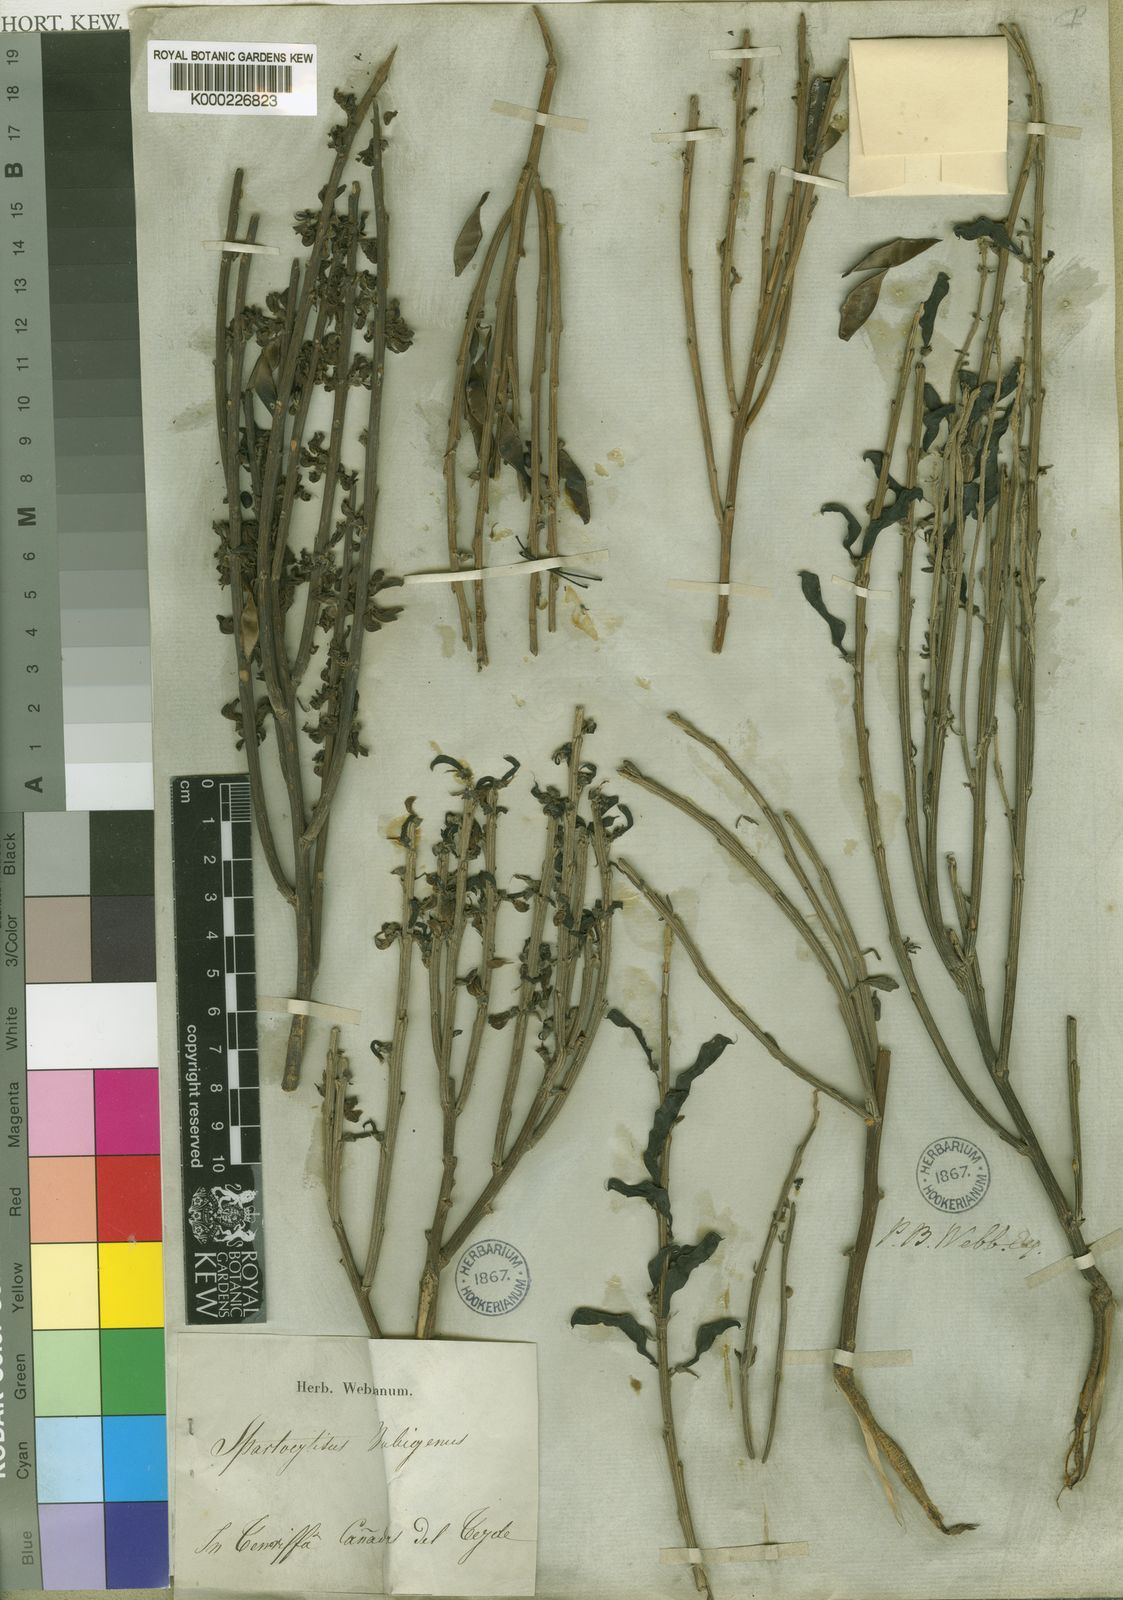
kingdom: Plantae
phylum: Tracheophyta
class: Magnoliopsida
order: Fabales
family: Fabaceae
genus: Cytisus
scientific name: Cytisus supranubius
